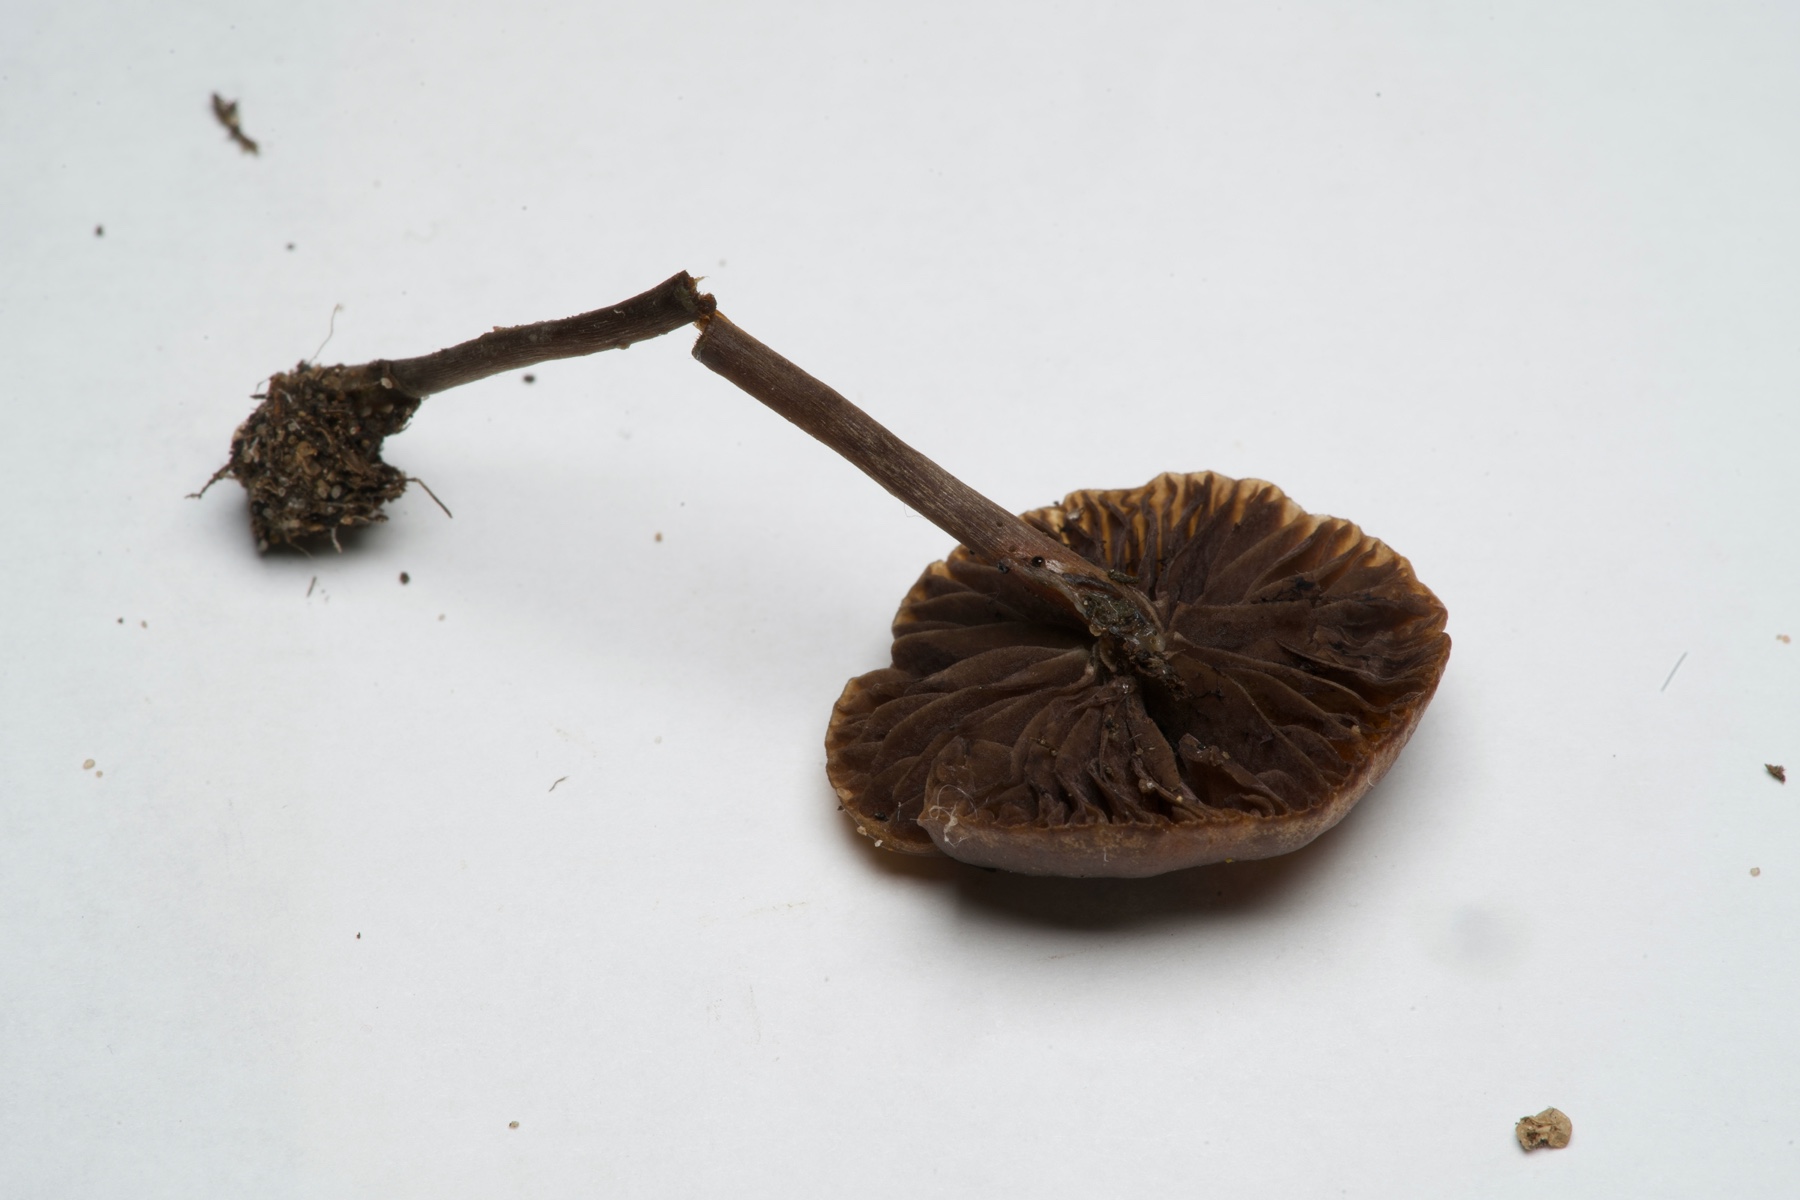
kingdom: Fungi
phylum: Basidiomycota
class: Agaricomycetes
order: Agaricales
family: Strophariaceae
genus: Deconica
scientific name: Deconica montana
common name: rødbrun stråhat
